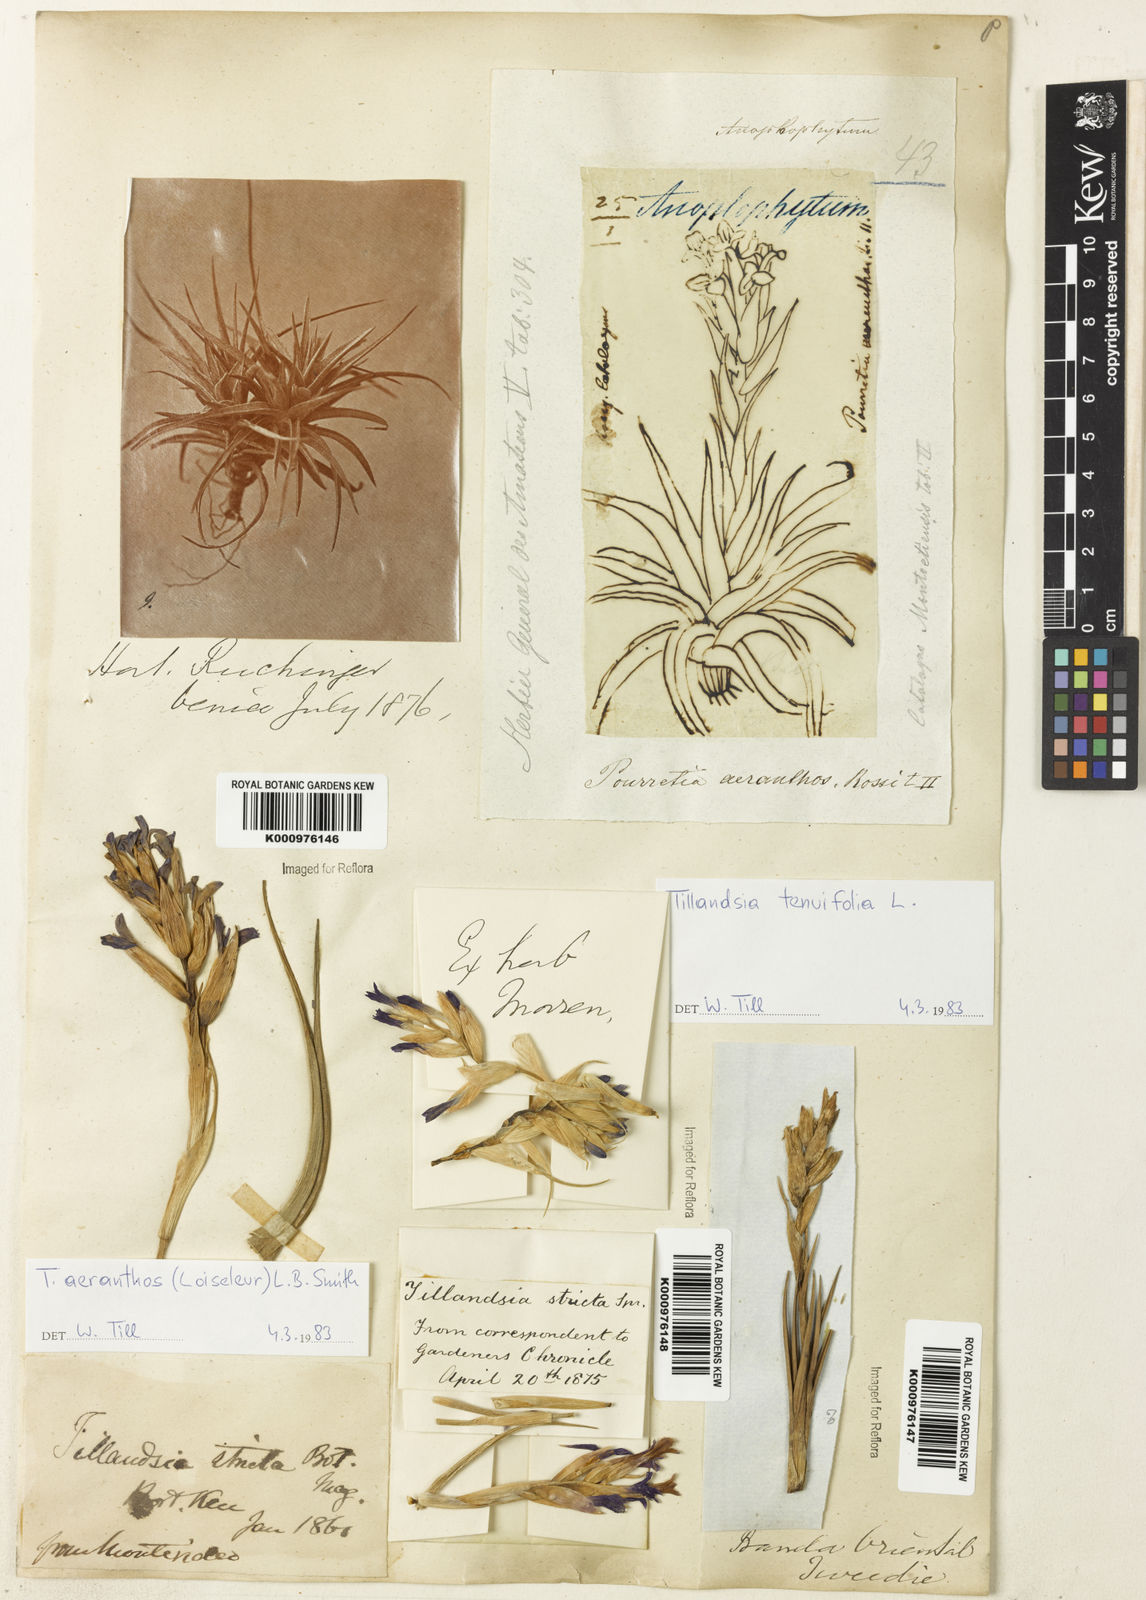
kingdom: Plantae
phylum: Tracheophyta
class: Liliopsida
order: Poales
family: Bromeliaceae
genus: Tillandsia
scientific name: Tillandsia
